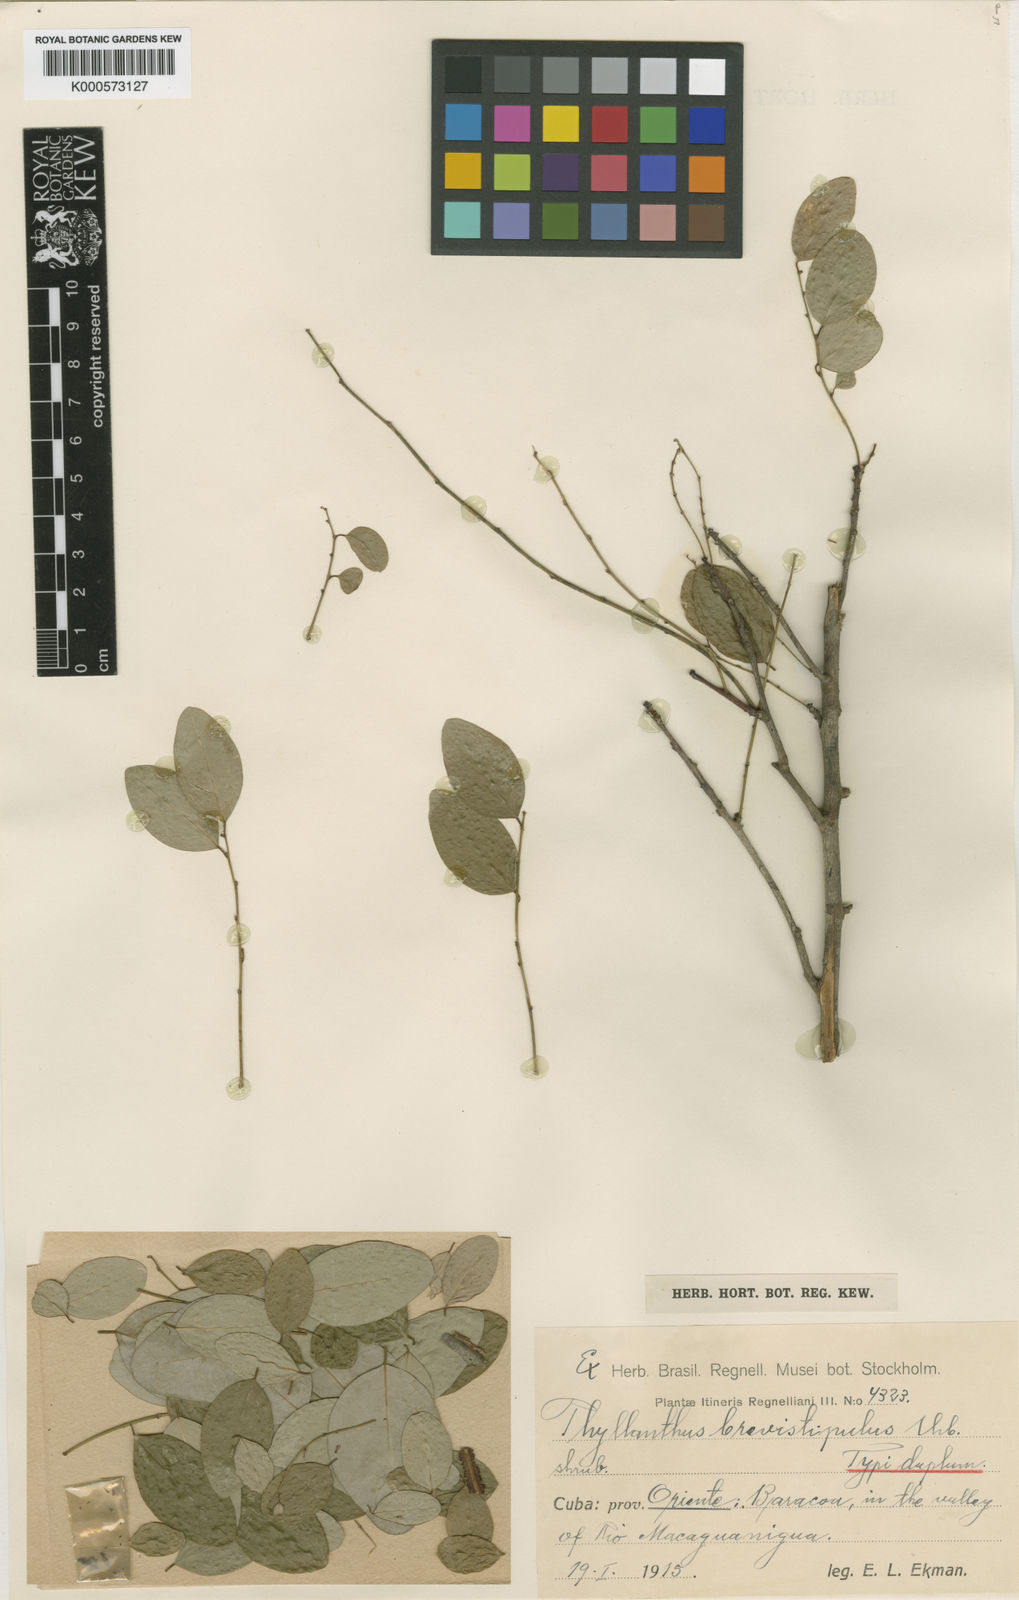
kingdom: Plantae
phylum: Tracheophyta
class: Magnoliopsida
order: Malpighiales
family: Phyllanthaceae
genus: Phyllanthus
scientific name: Phyllanthus pseudocicca
